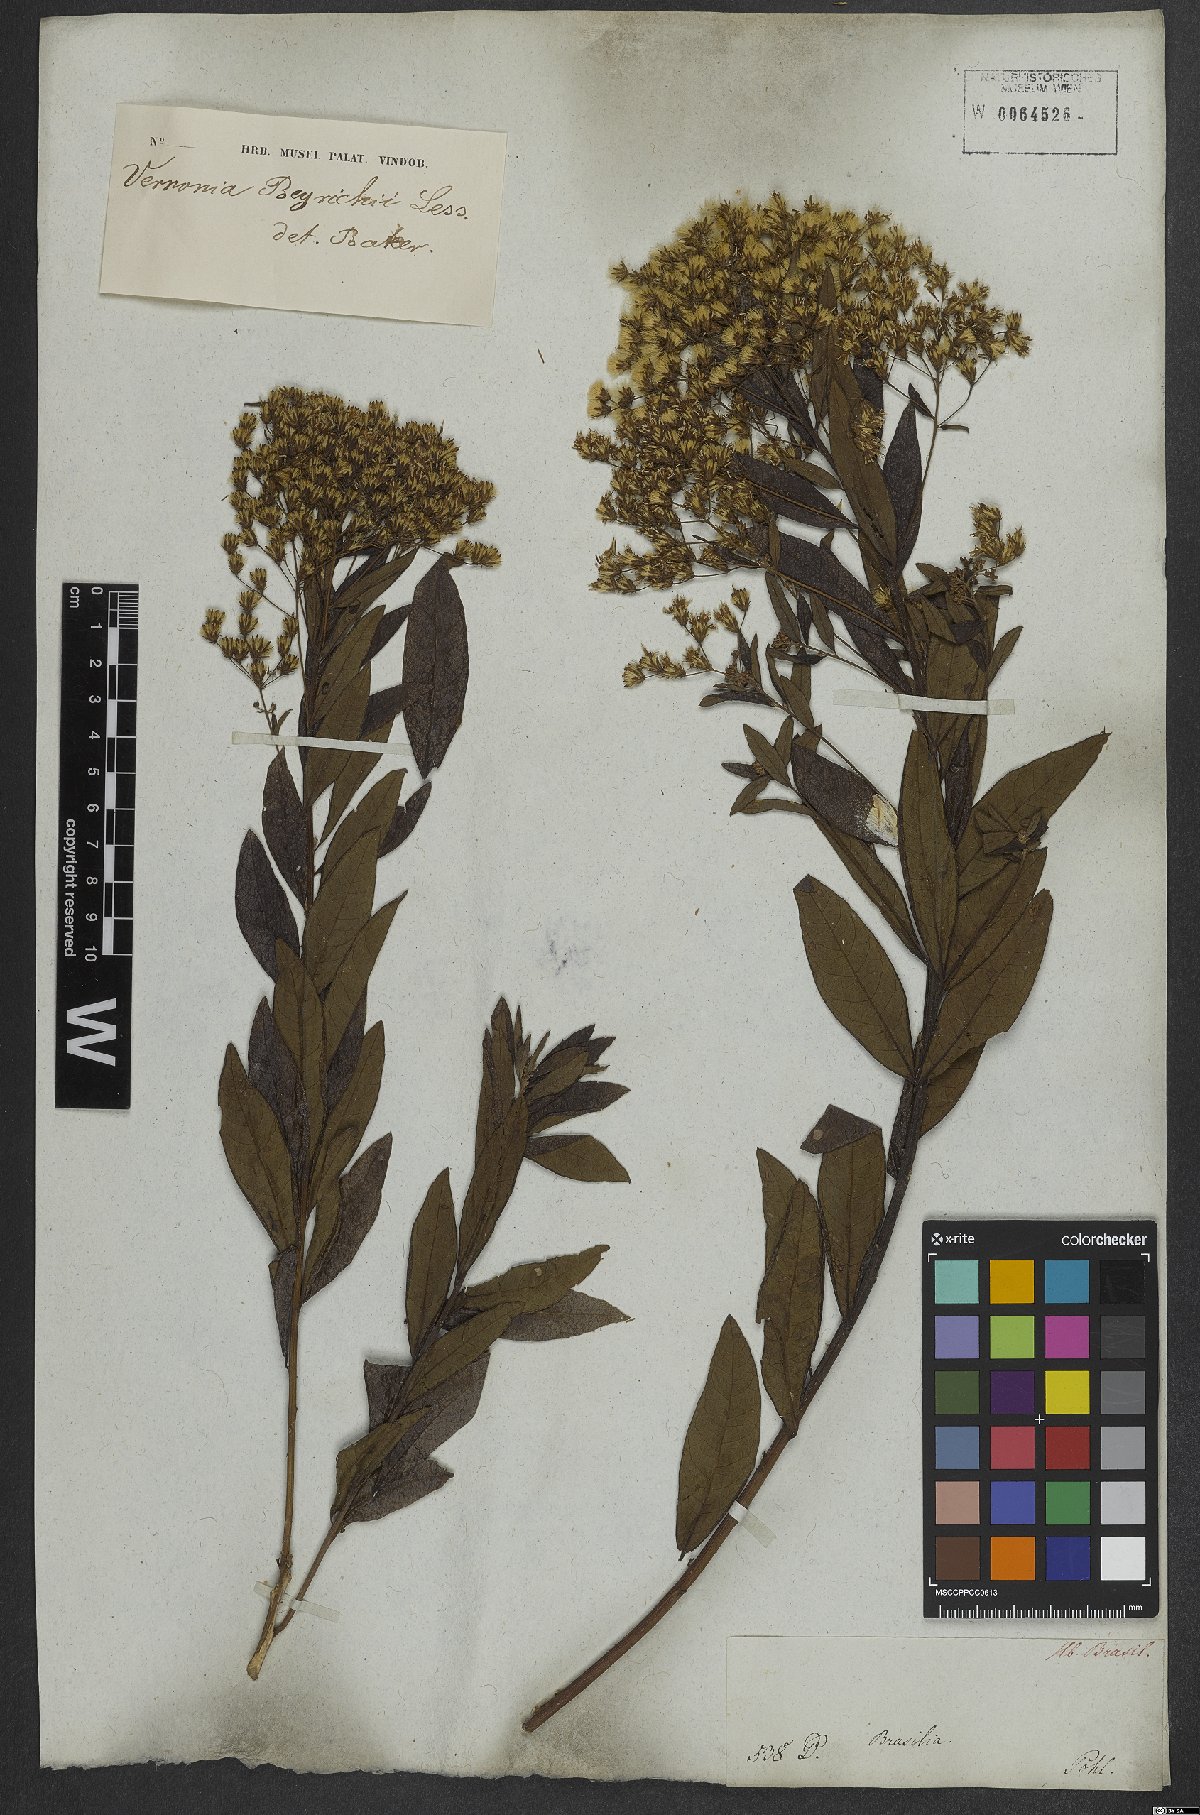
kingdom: Plantae
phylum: Tracheophyta
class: Magnoliopsida
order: Asterales
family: Asteraceae
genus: Vernonanthura
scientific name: Vernonanthura beyrichii
